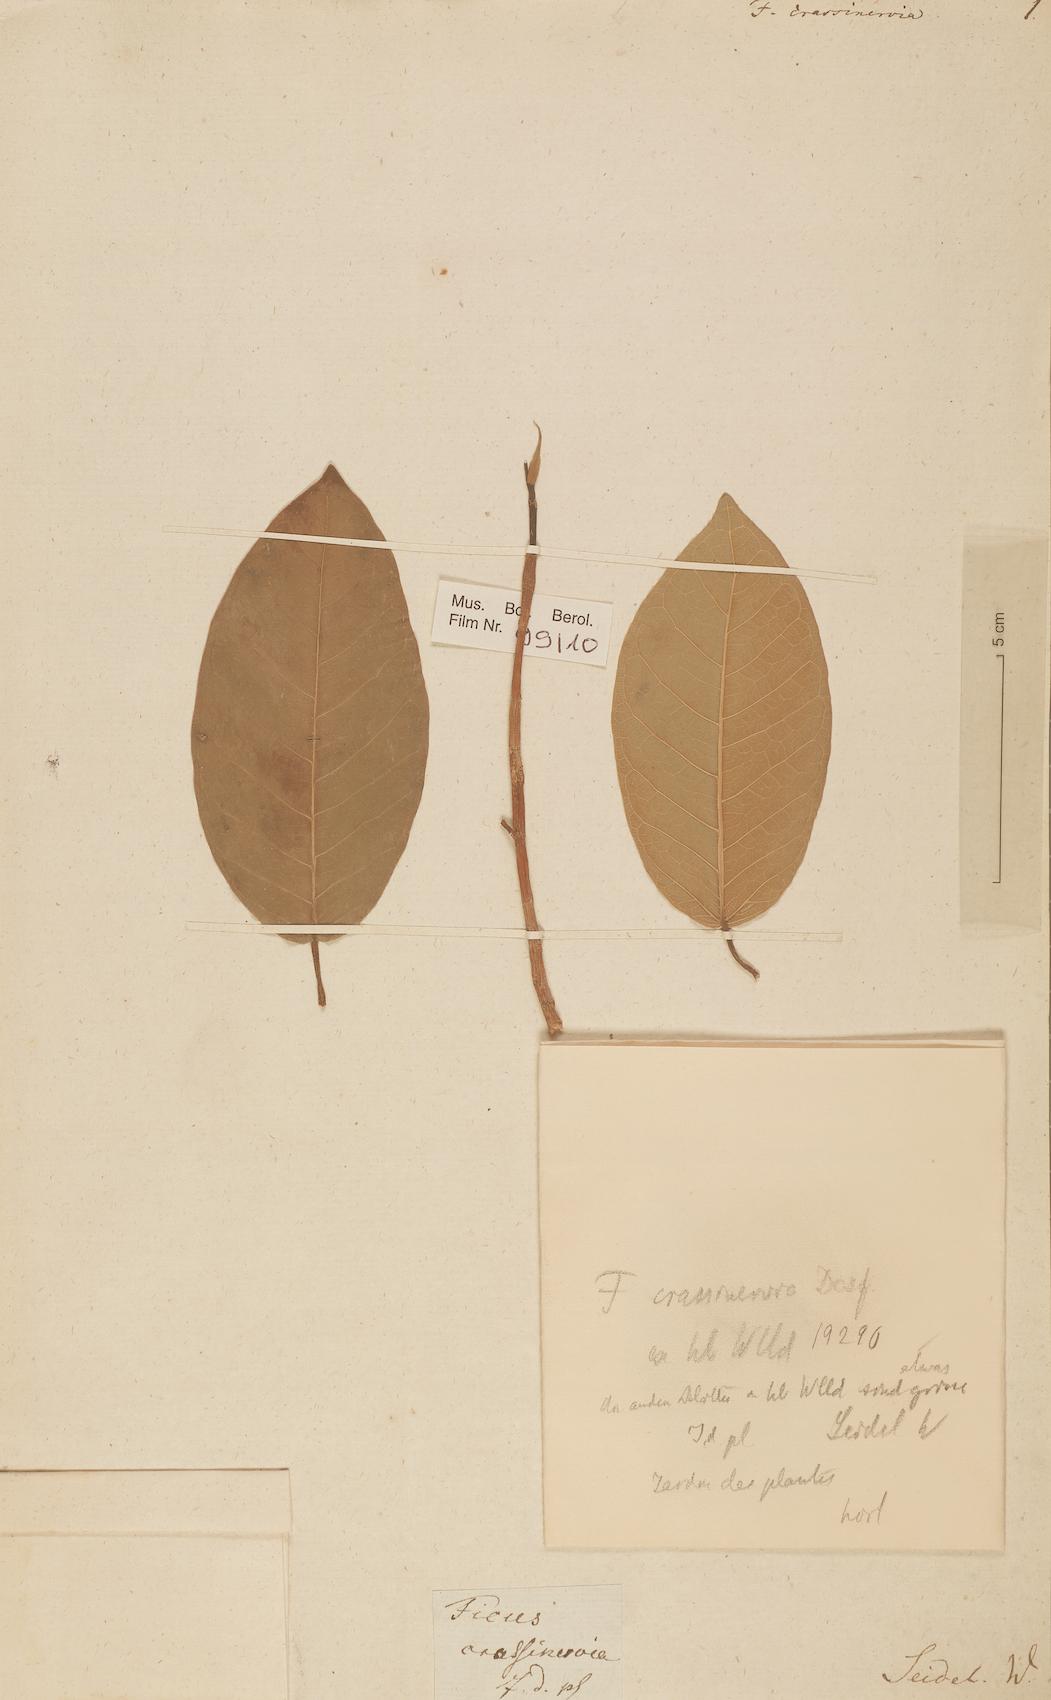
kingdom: Plantae
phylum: Tracheophyta
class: Magnoliopsida
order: Rosales
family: Moraceae
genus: Ficus
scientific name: Ficus crassinervia
